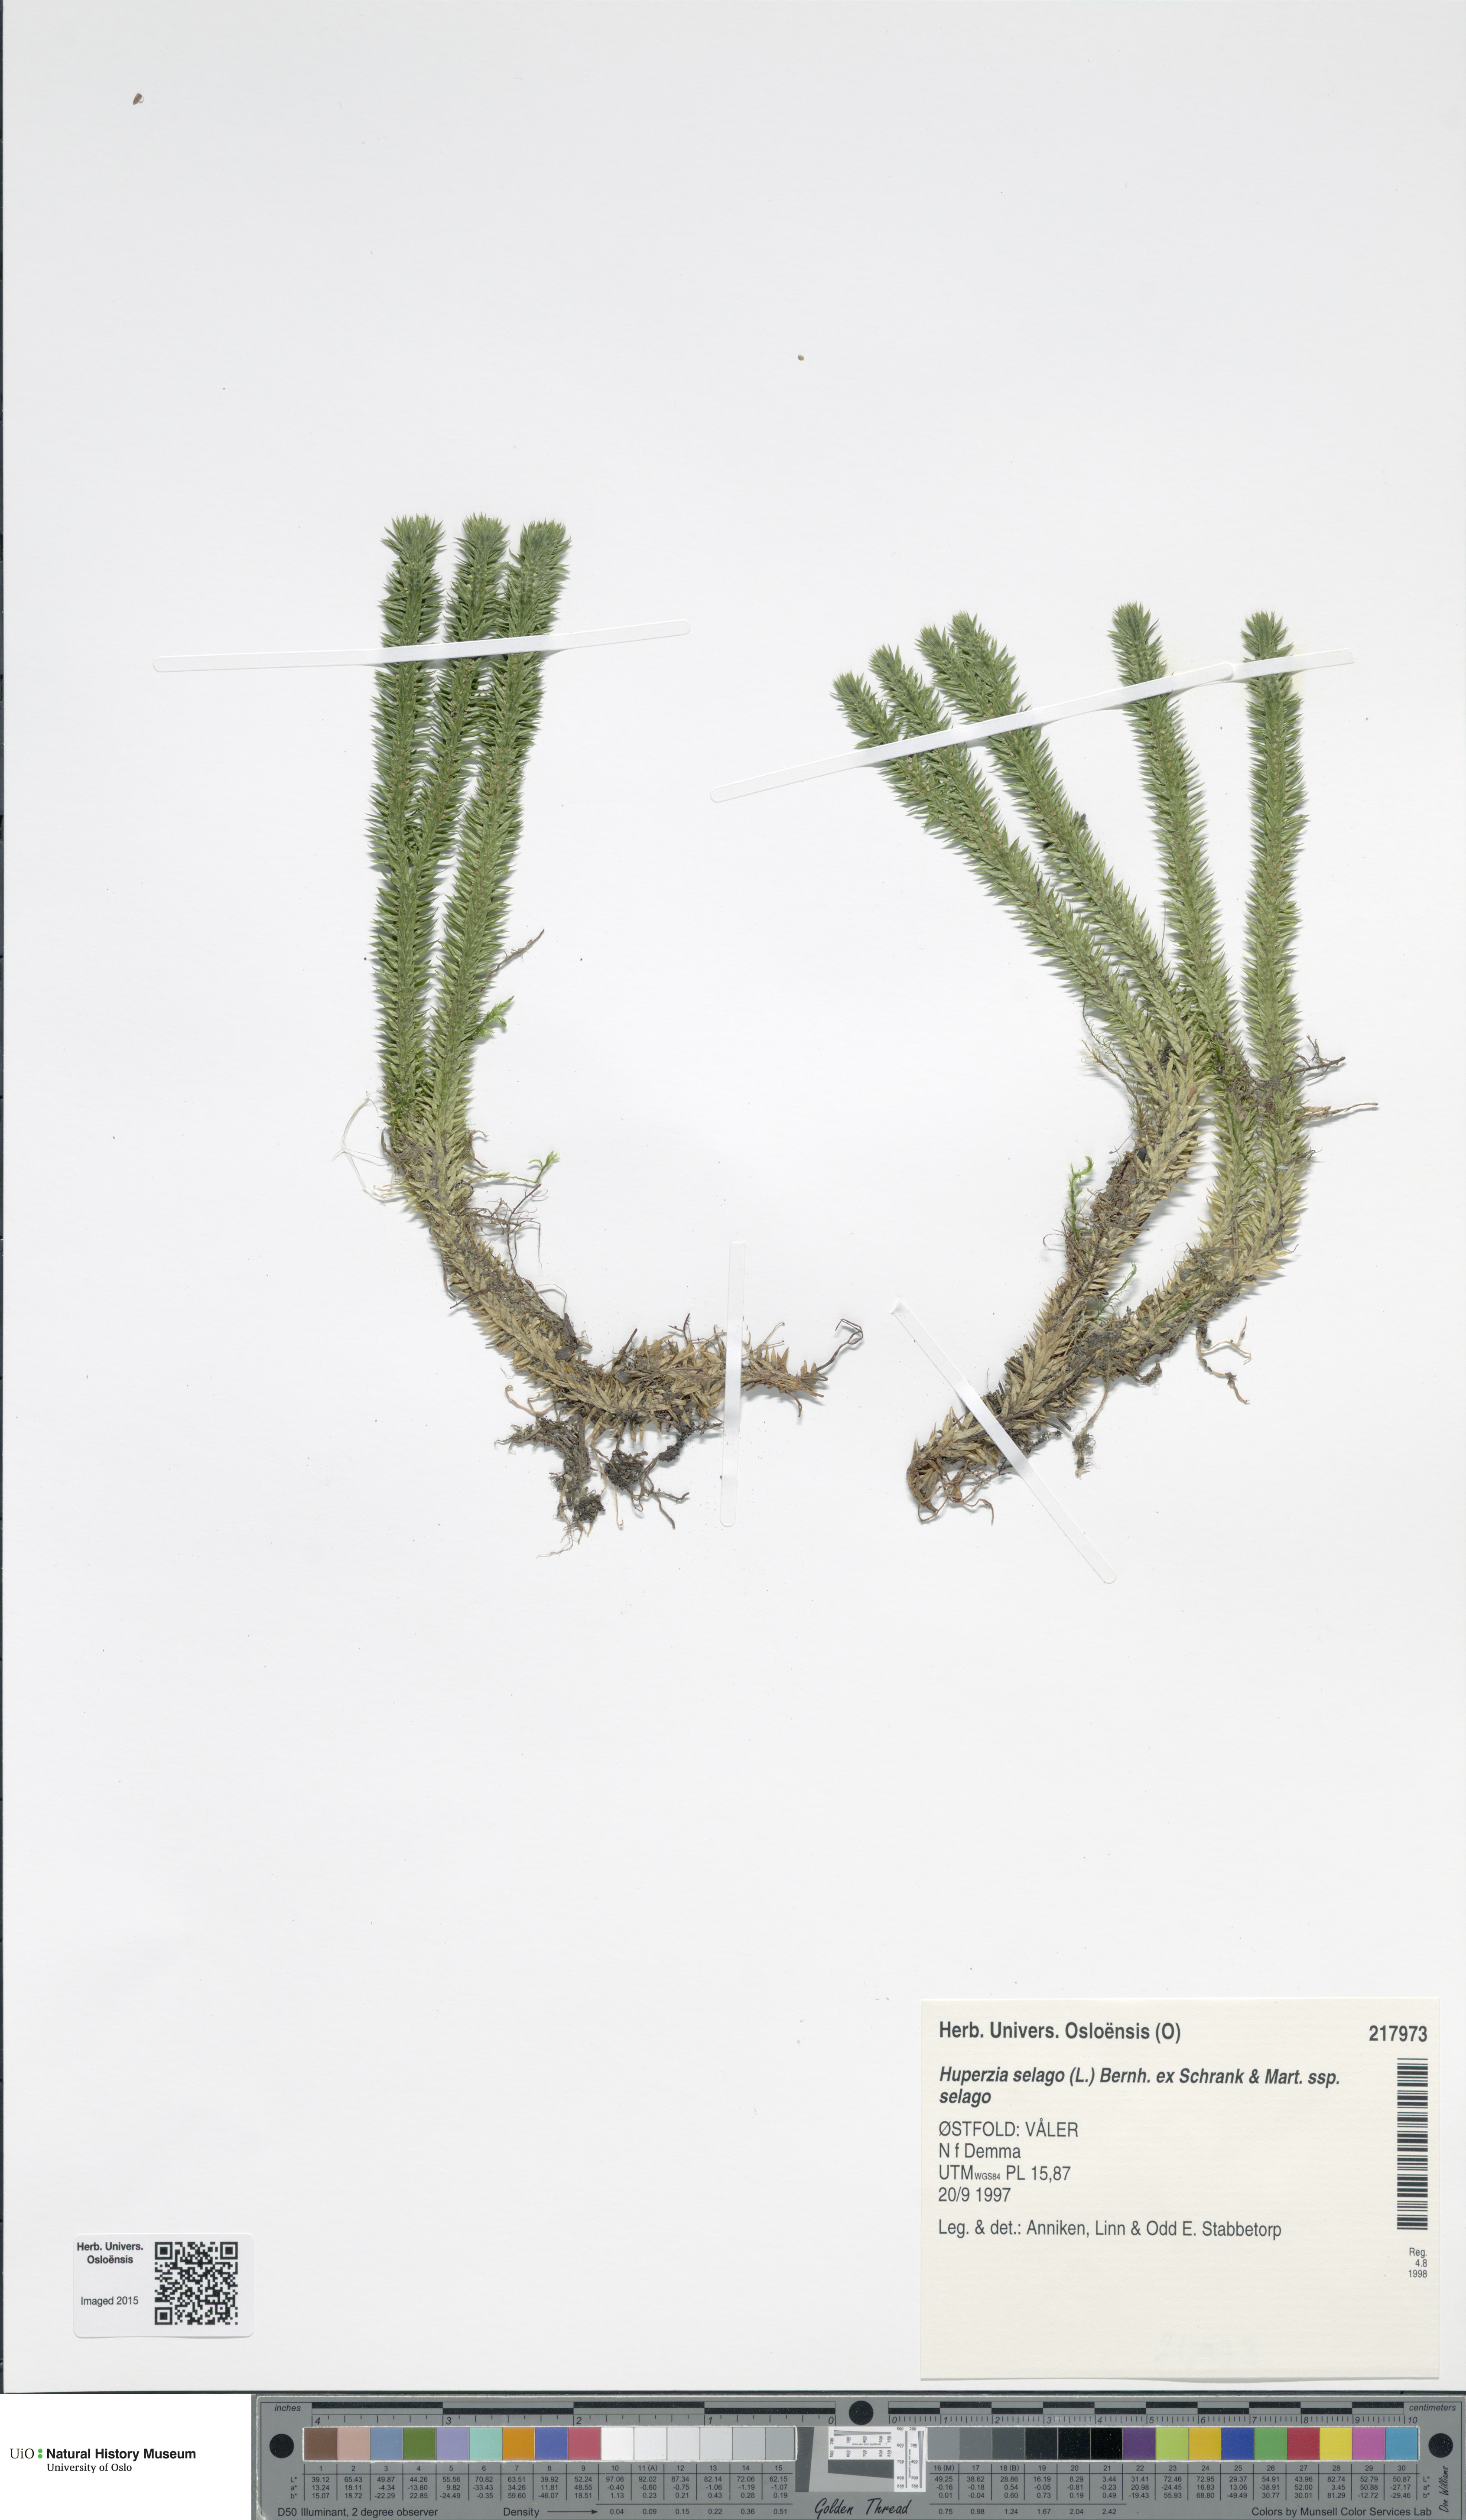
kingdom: Plantae
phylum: Tracheophyta
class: Lycopodiopsida
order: Lycopodiales
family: Lycopodiaceae
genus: Huperzia
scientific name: Huperzia selago
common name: Northern firmoss
